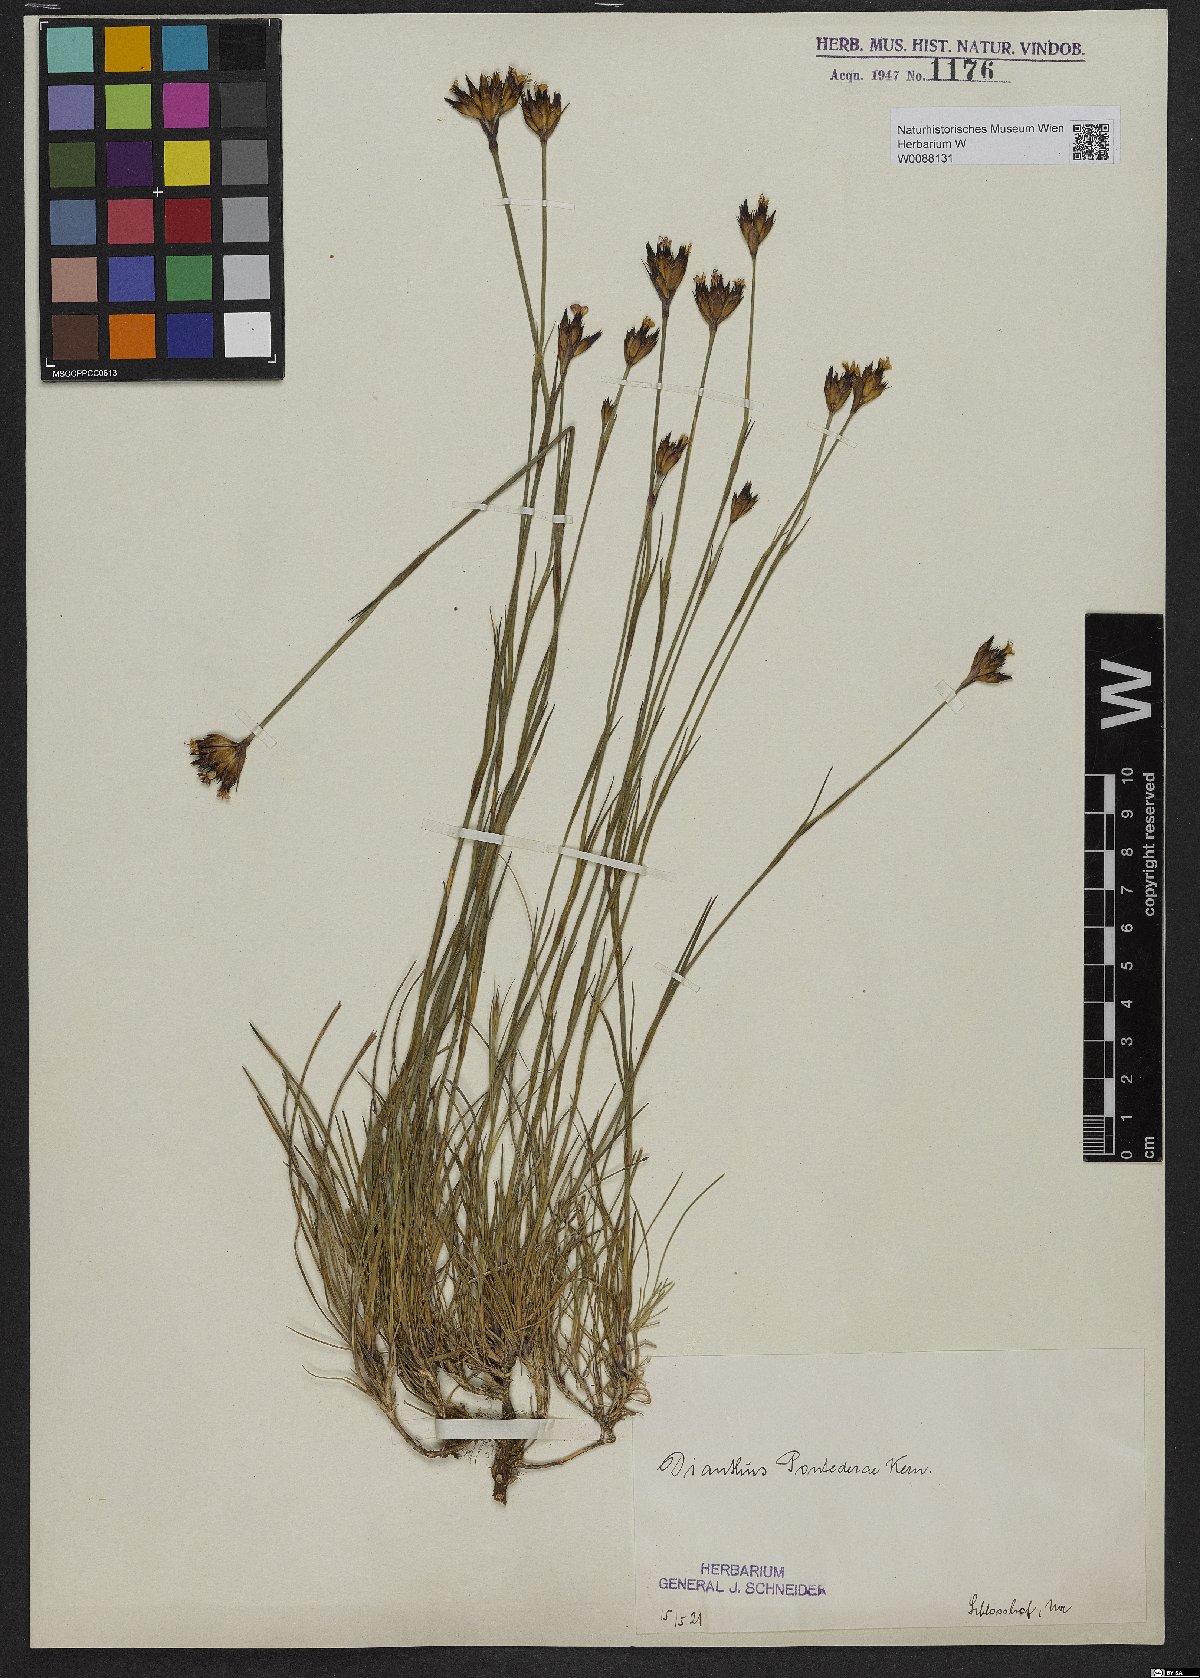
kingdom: Plantae
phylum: Tracheophyta
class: Magnoliopsida
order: Caryophyllales
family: Caryophyllaceae
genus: Dianthus
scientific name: Dianthus pontederae
